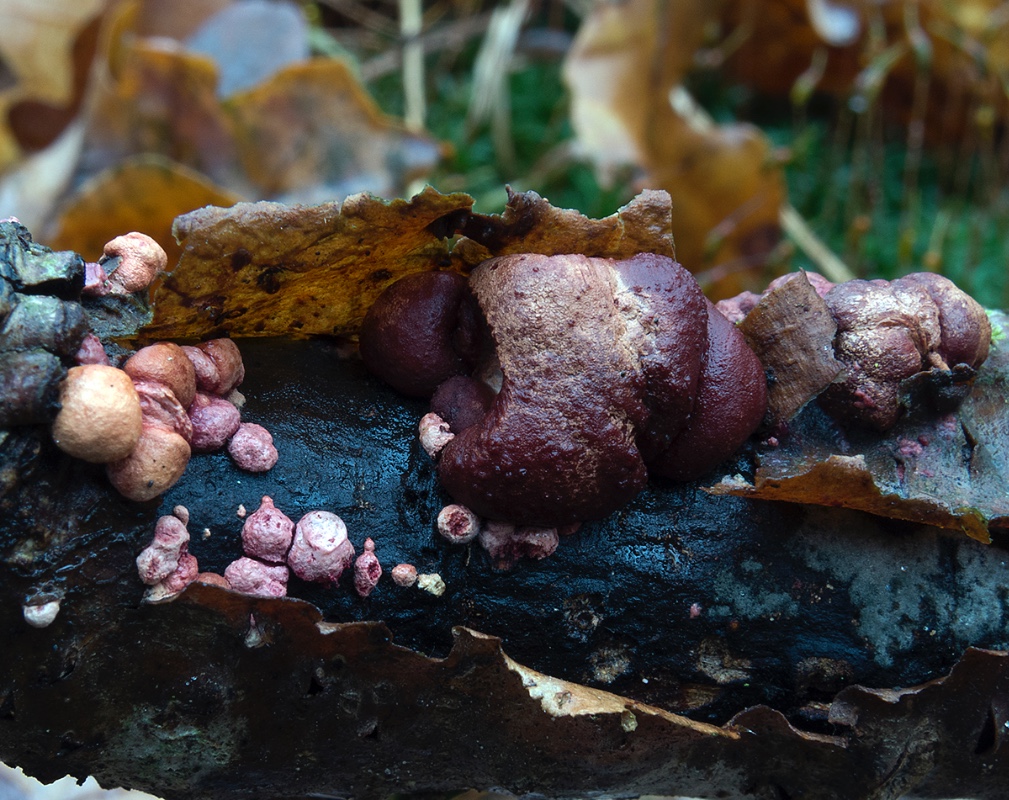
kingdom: Fungi
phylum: Ascomycota
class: Sordariomycetes
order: Hypocreales
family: Hypocreaceae
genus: Trichoderma
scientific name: Trichoderma europaeum
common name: rosabrun kødkerne
